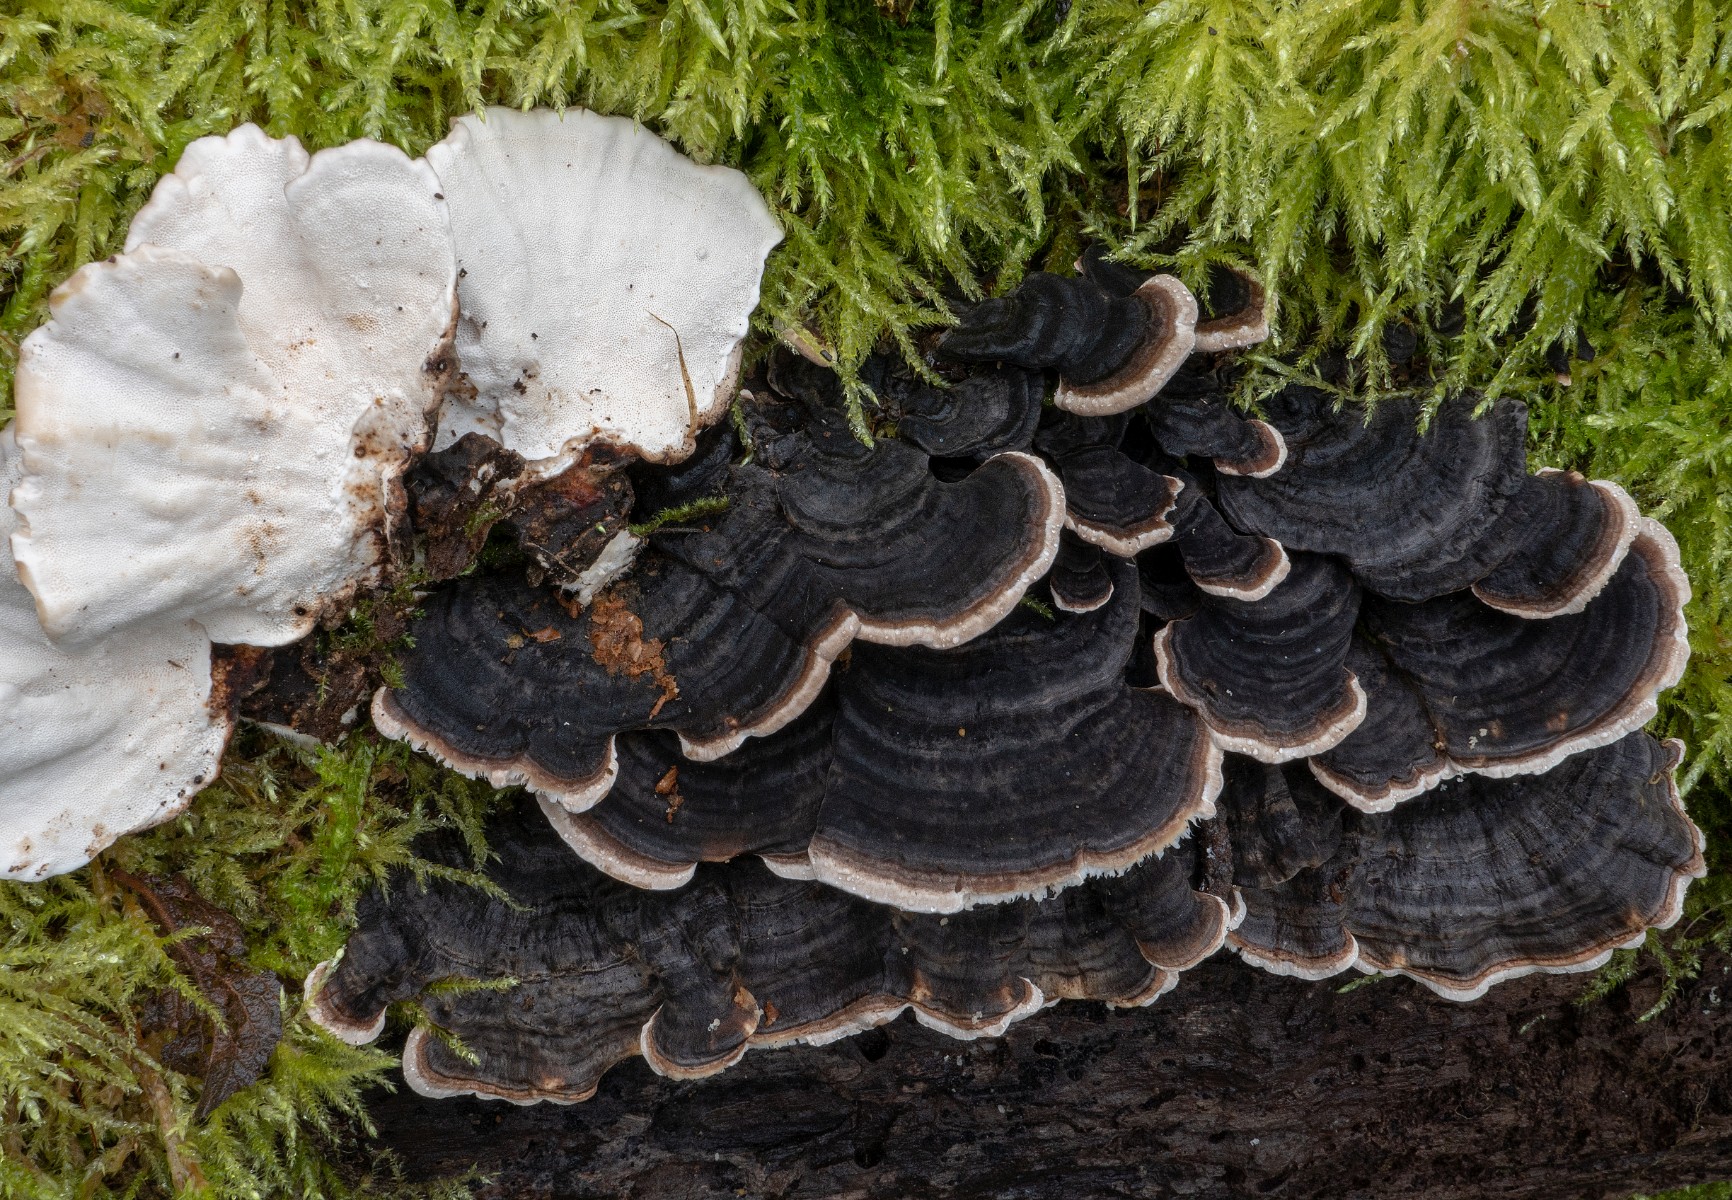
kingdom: Fungi
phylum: Basidiomycota
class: Agaricomycetes
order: Polyporales
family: Polyporaceae
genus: Trametes
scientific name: Trametes versicolor
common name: broget læderporesvamp
